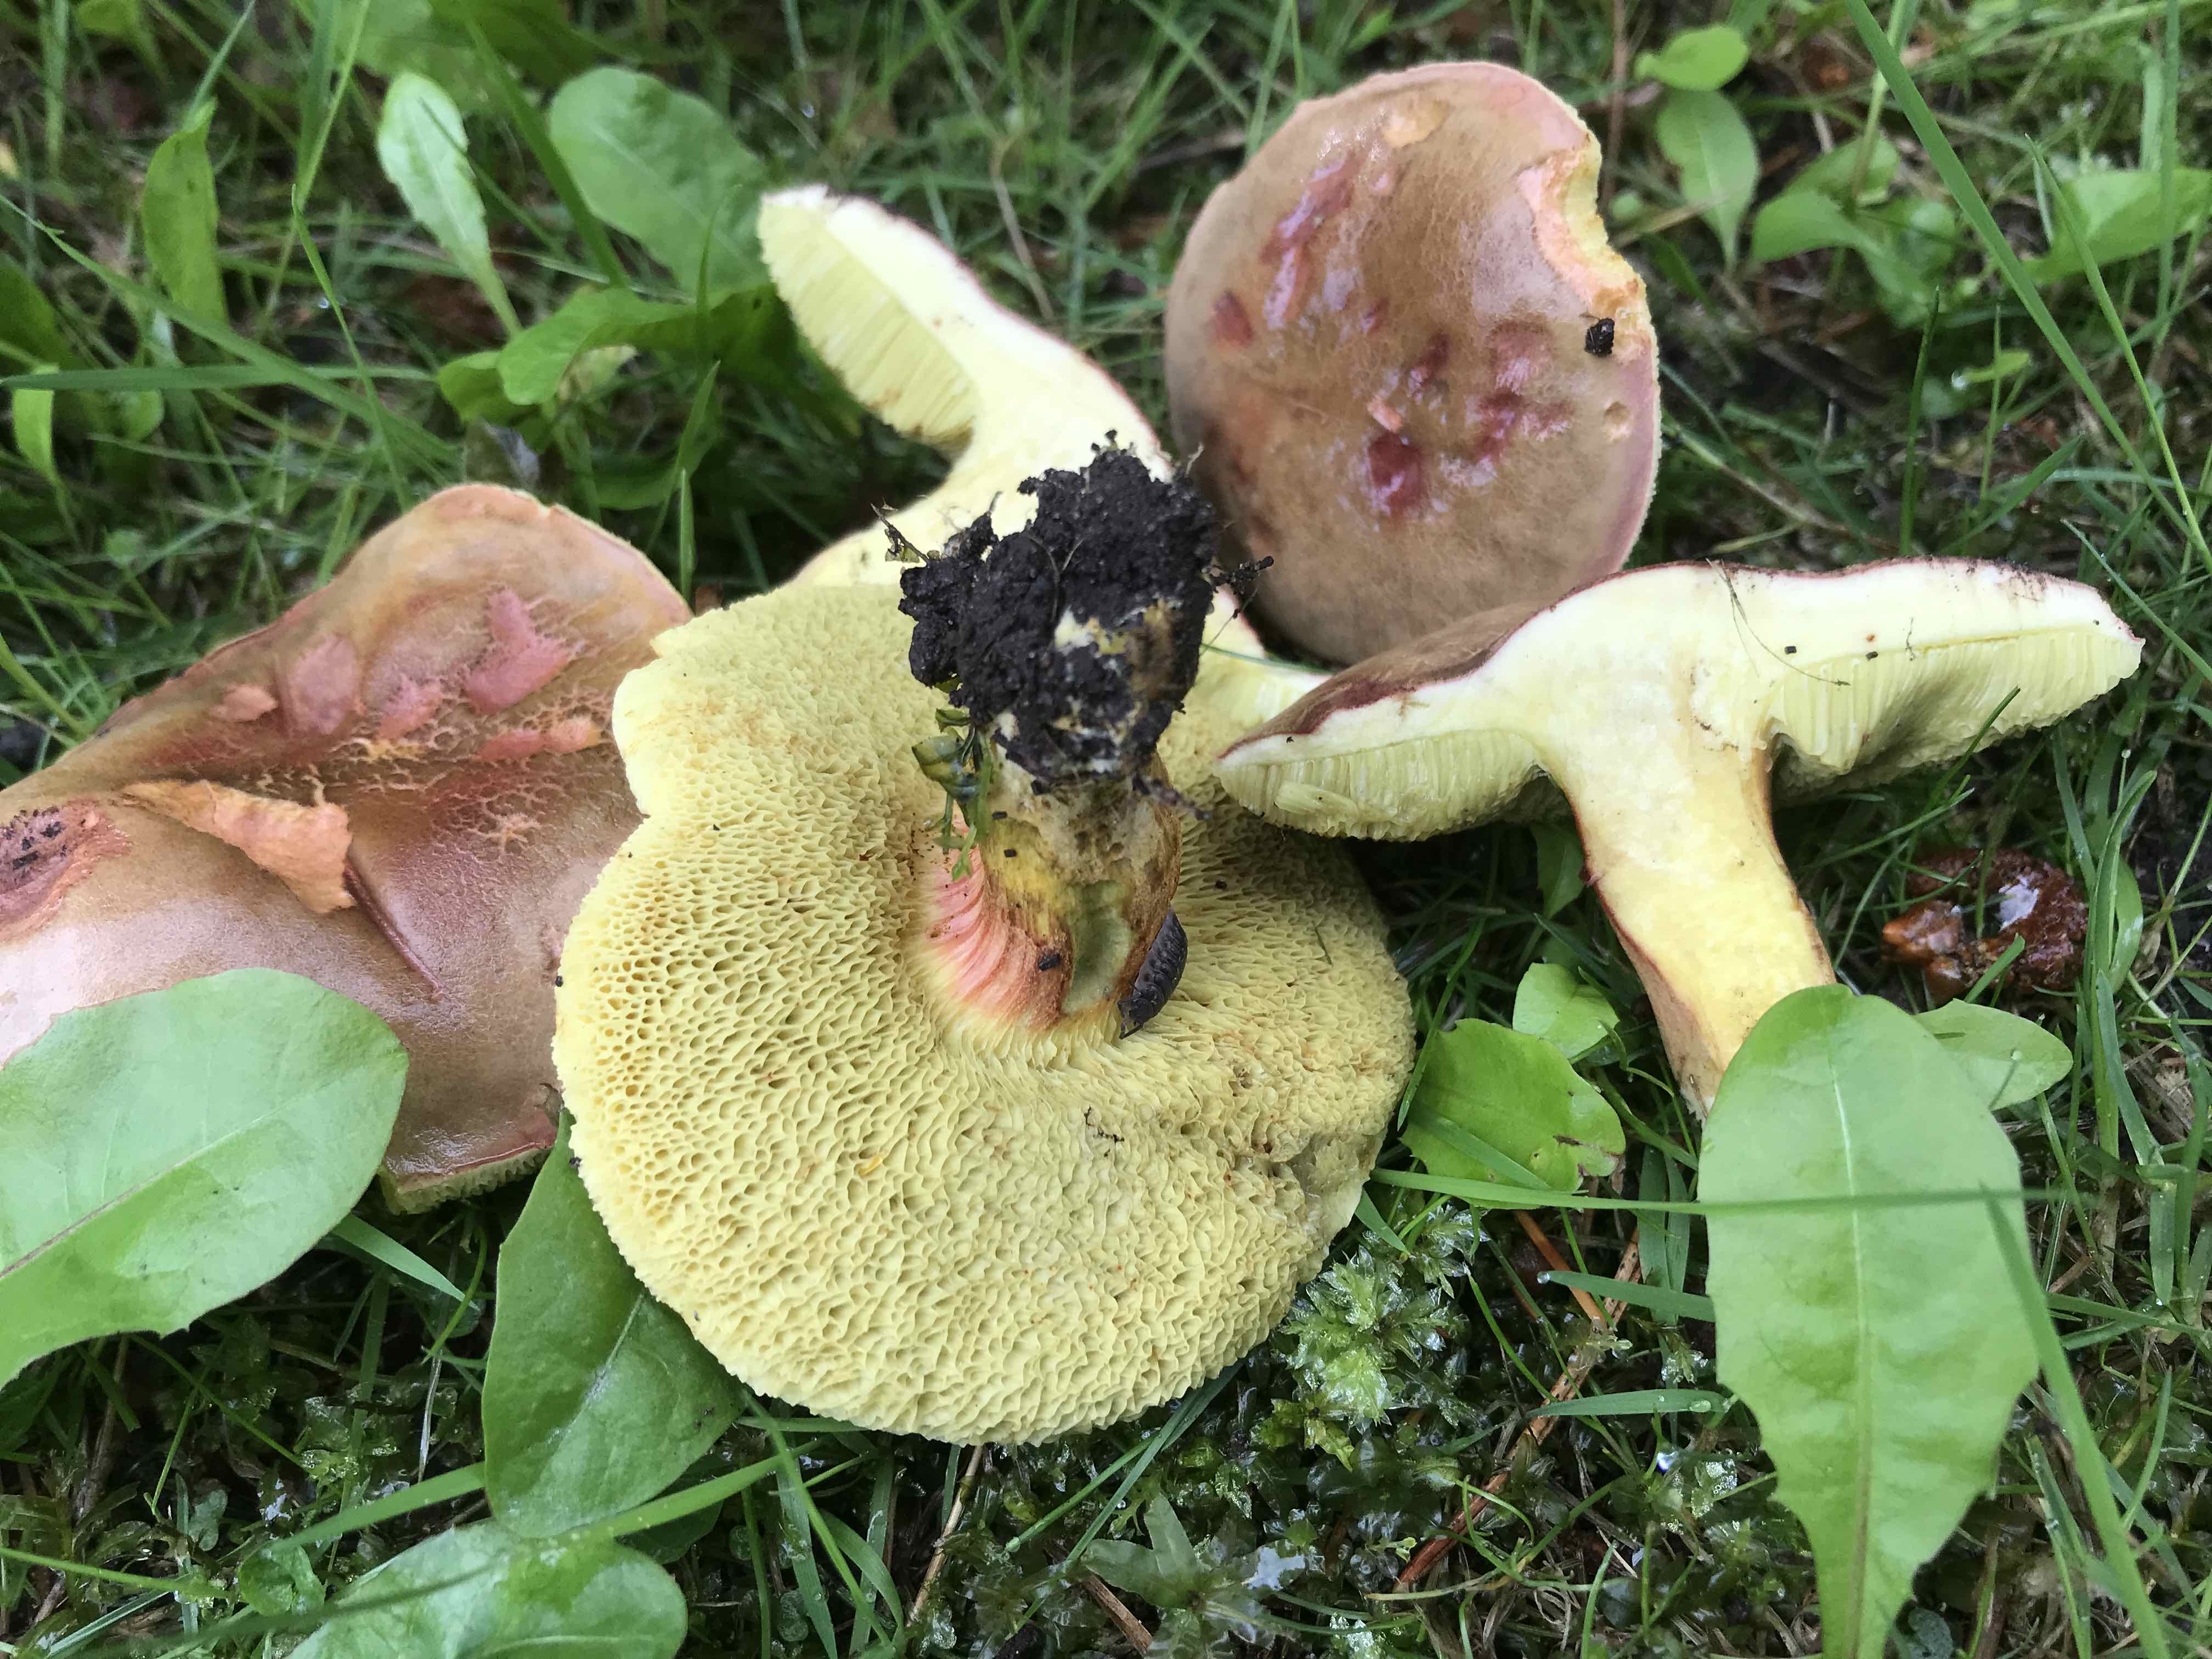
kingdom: Fungi
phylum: Basidiomycota
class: Agaricomycetes
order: Boletales
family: Boletaceae
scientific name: Boletaceae
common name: rørhatfamilien
